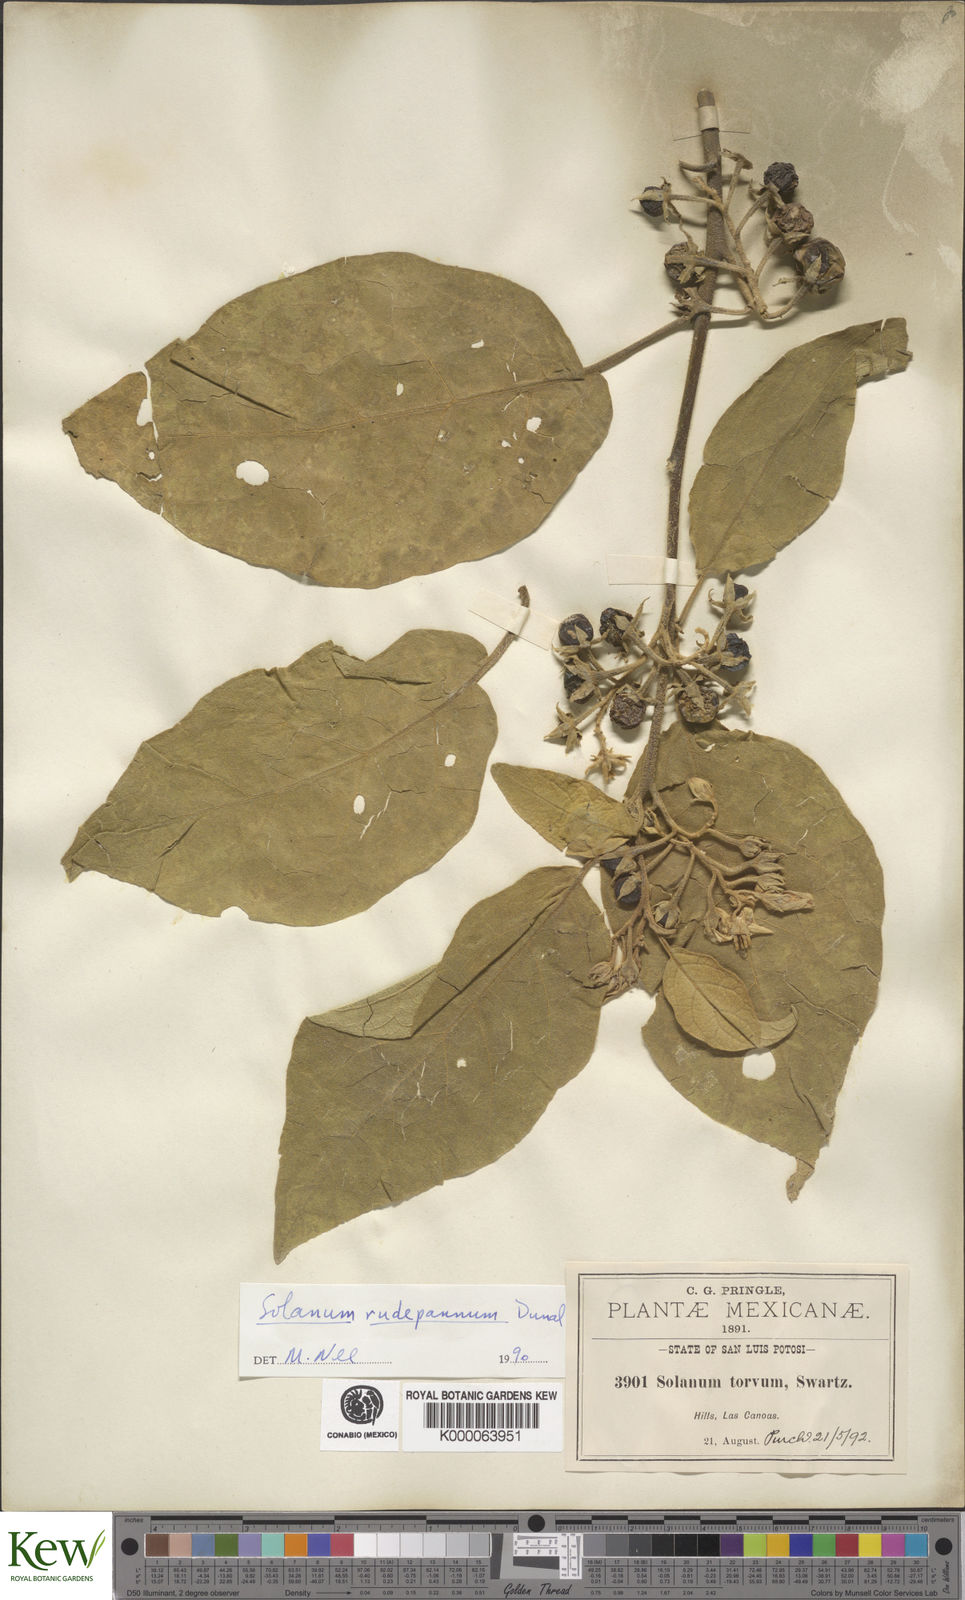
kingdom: Plantae
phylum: Tracheophyta
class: Magnoliopsida
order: Solanales
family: Solanaceae
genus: Solanum
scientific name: Solanum rude-pannum
